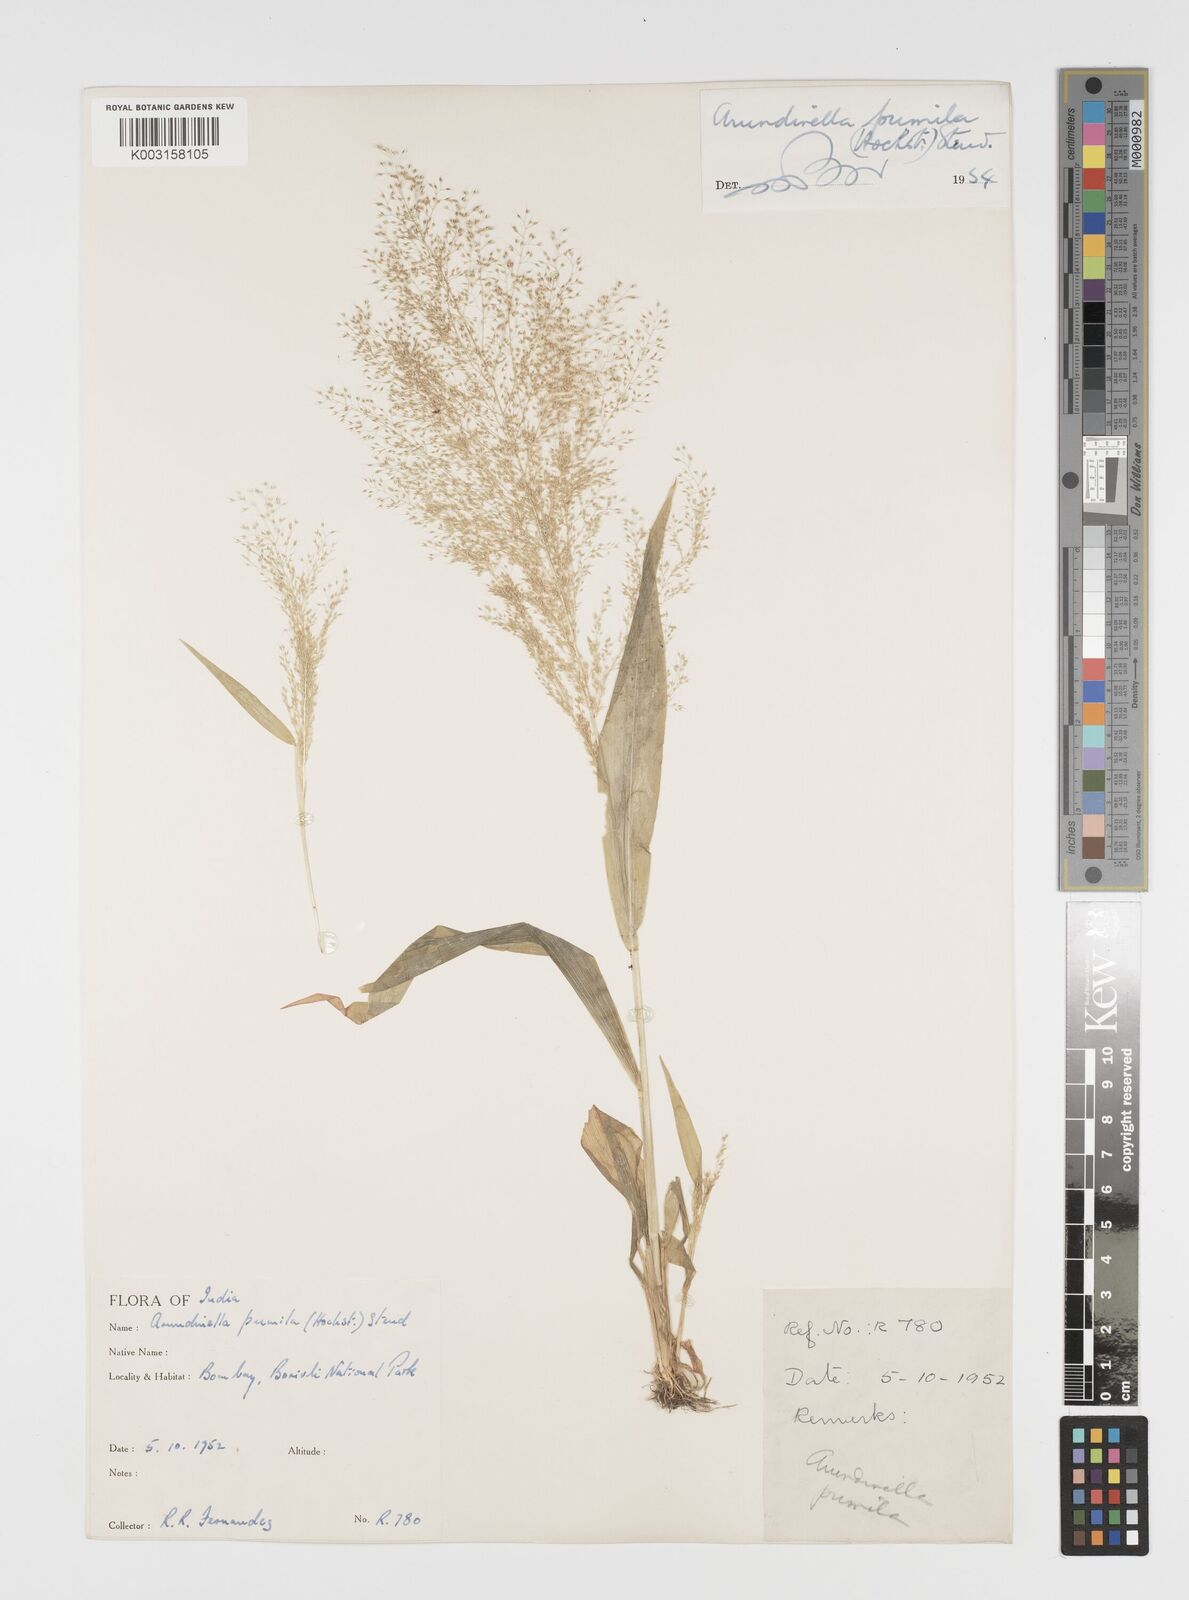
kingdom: Plantae
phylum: Tracheophyta
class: Liliopsida
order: Poales
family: Poaceae
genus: Arundinella
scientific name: Arundinella pumila
